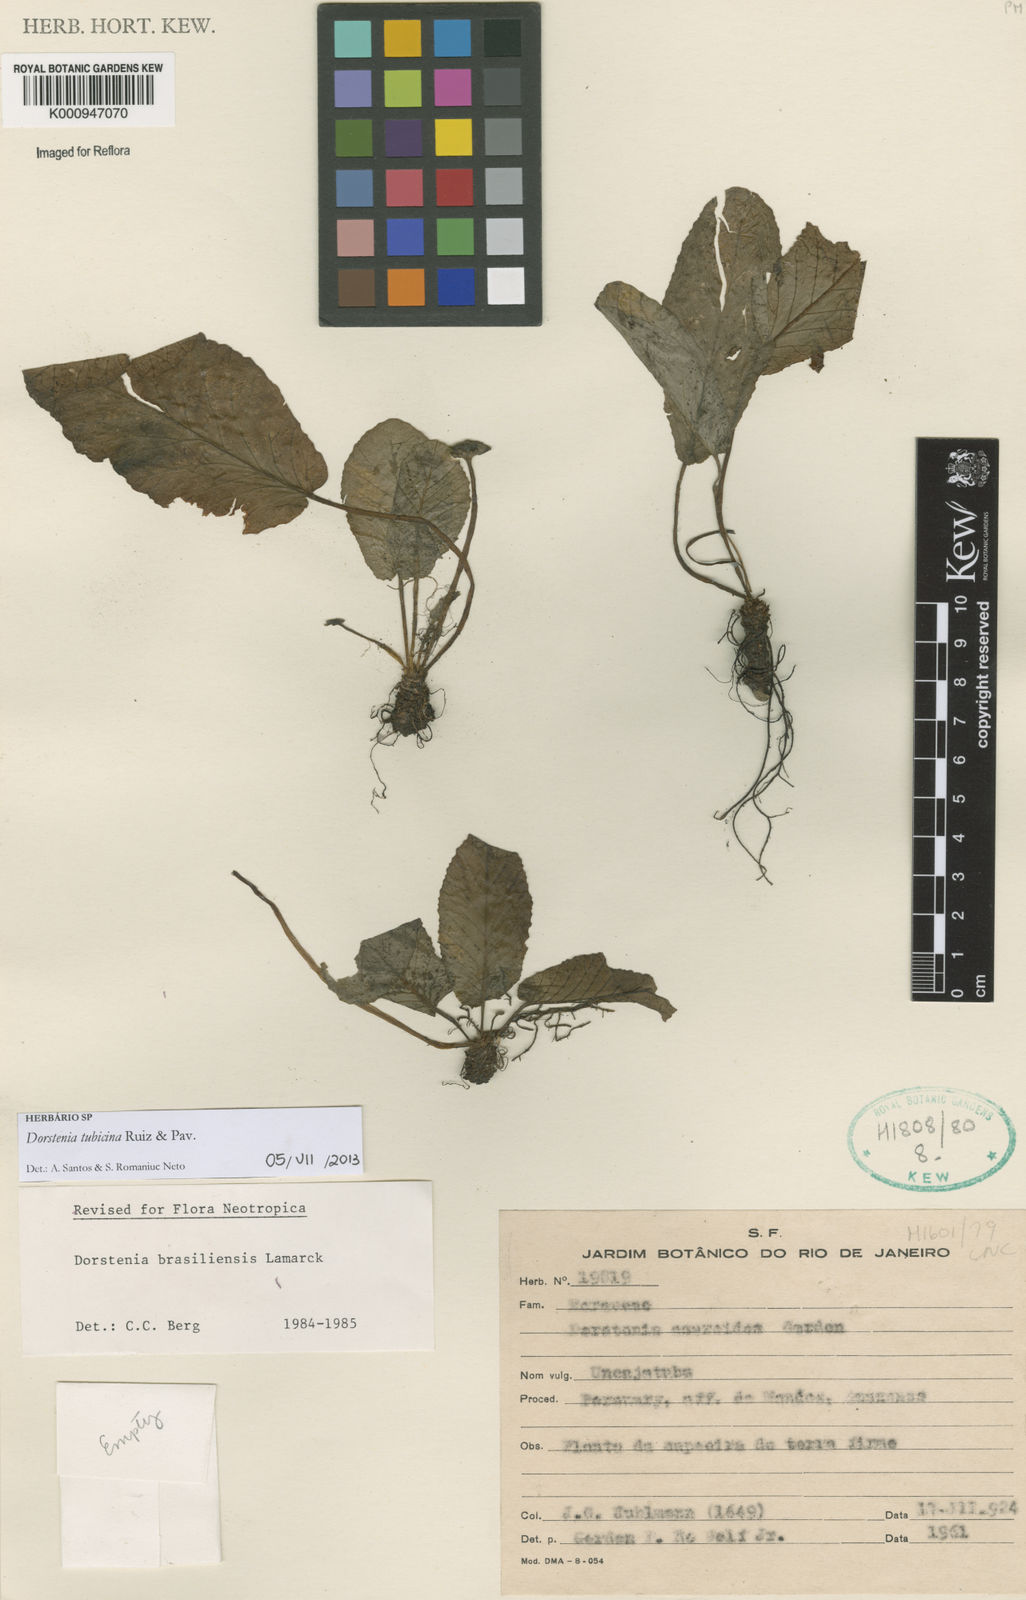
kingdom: Plantae
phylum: Tracheophyta
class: Magnoliopsida
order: Rosales
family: Moraceae
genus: Dorstenia
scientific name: Dorstenia brasiliensis
